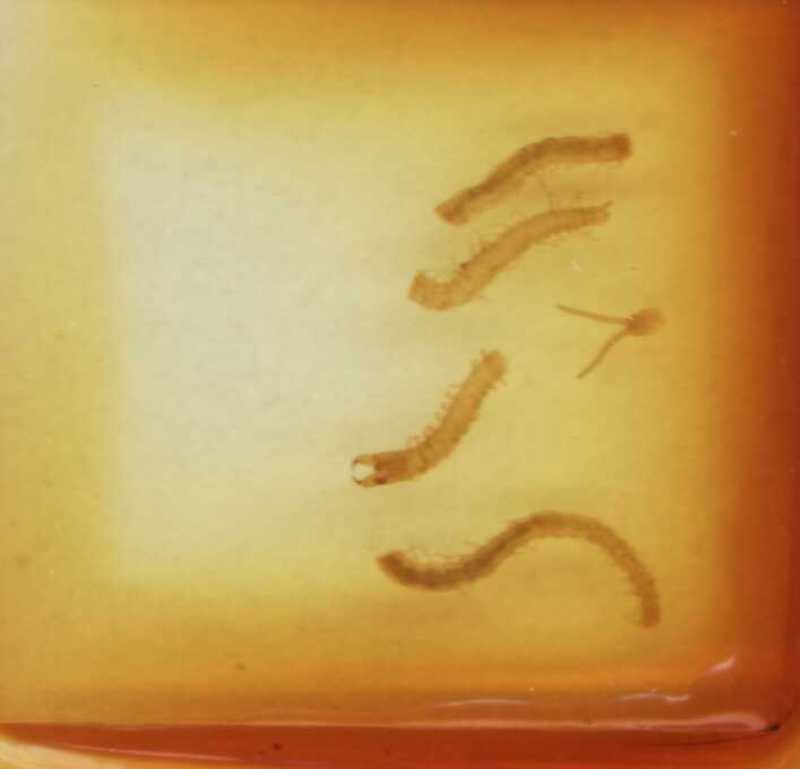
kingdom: Animalia
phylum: Arthropoda
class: Chilopoda
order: Geophilomorpha
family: Geophilidae
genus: Eurytion
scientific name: Eurytion dudichii
